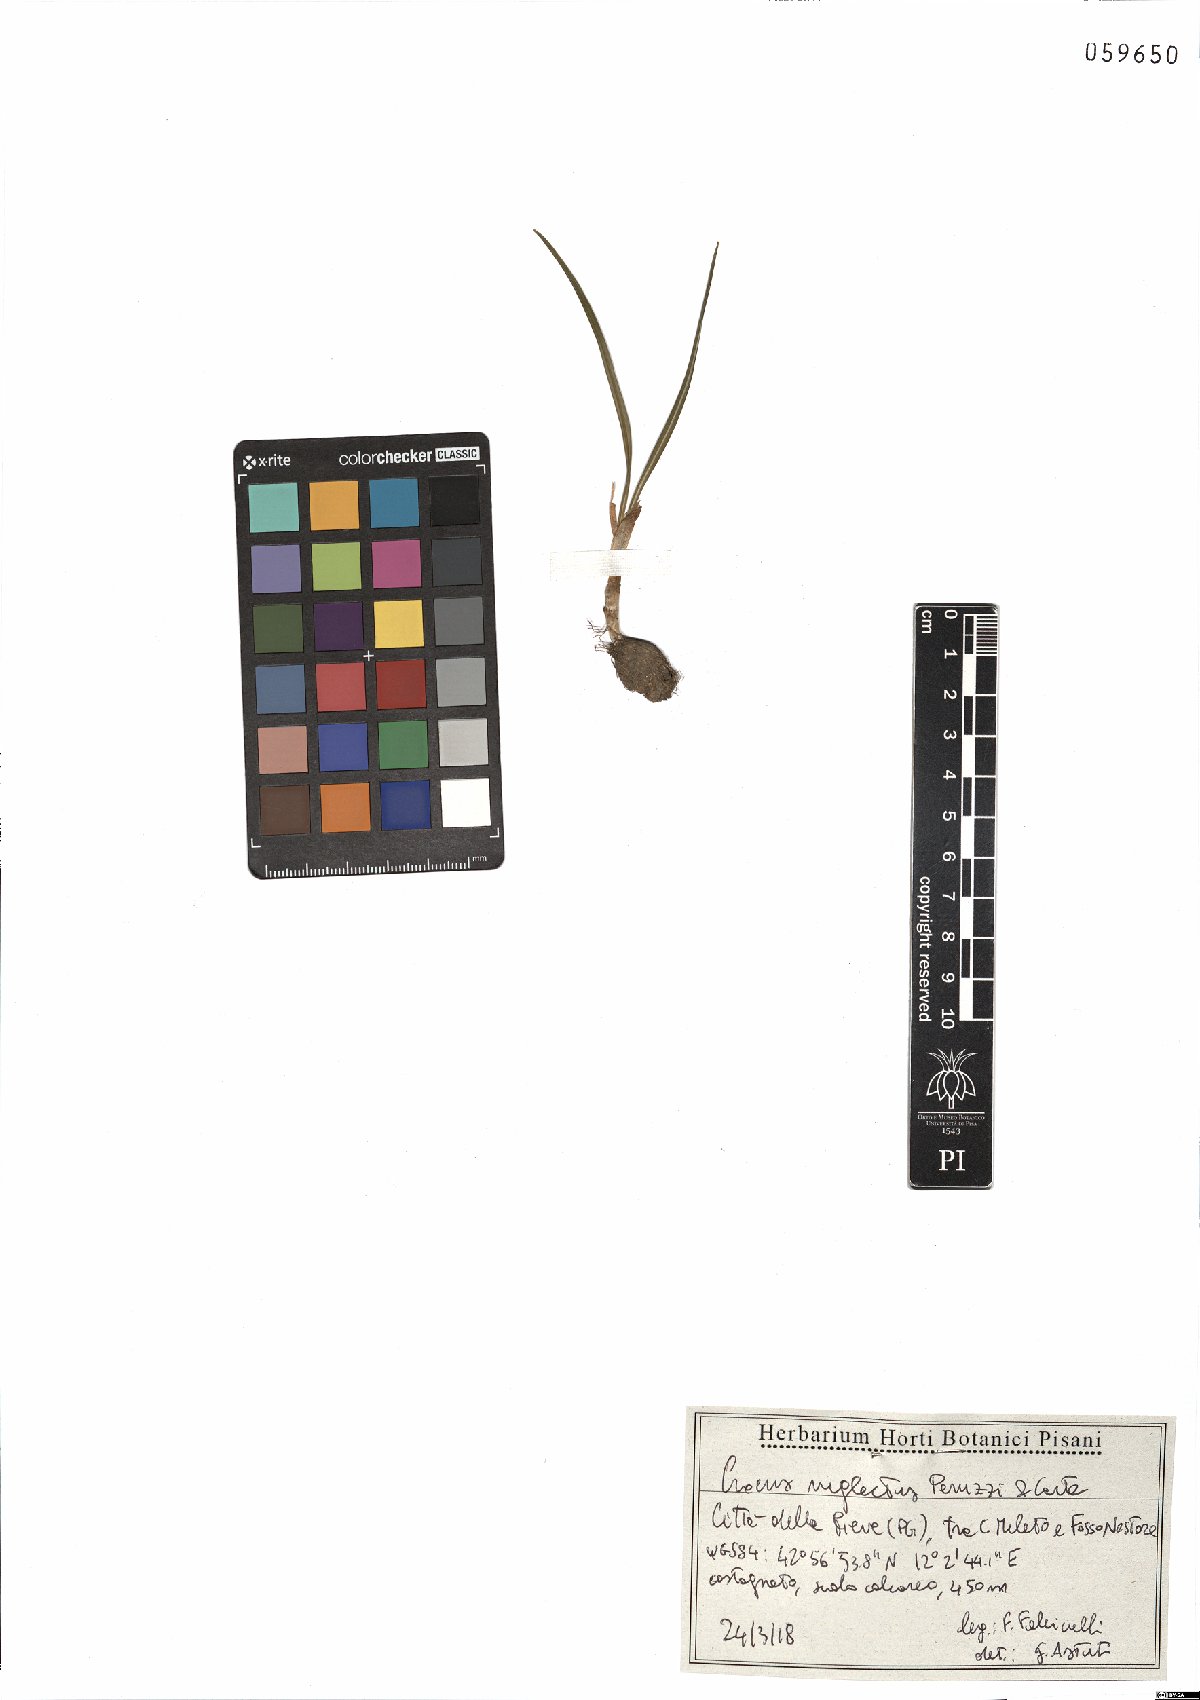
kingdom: Plantae
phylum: Tracheophyta
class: Liliopsida
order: Asparagales
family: Iridaceae
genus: Crocus
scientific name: Crocus neglectus
